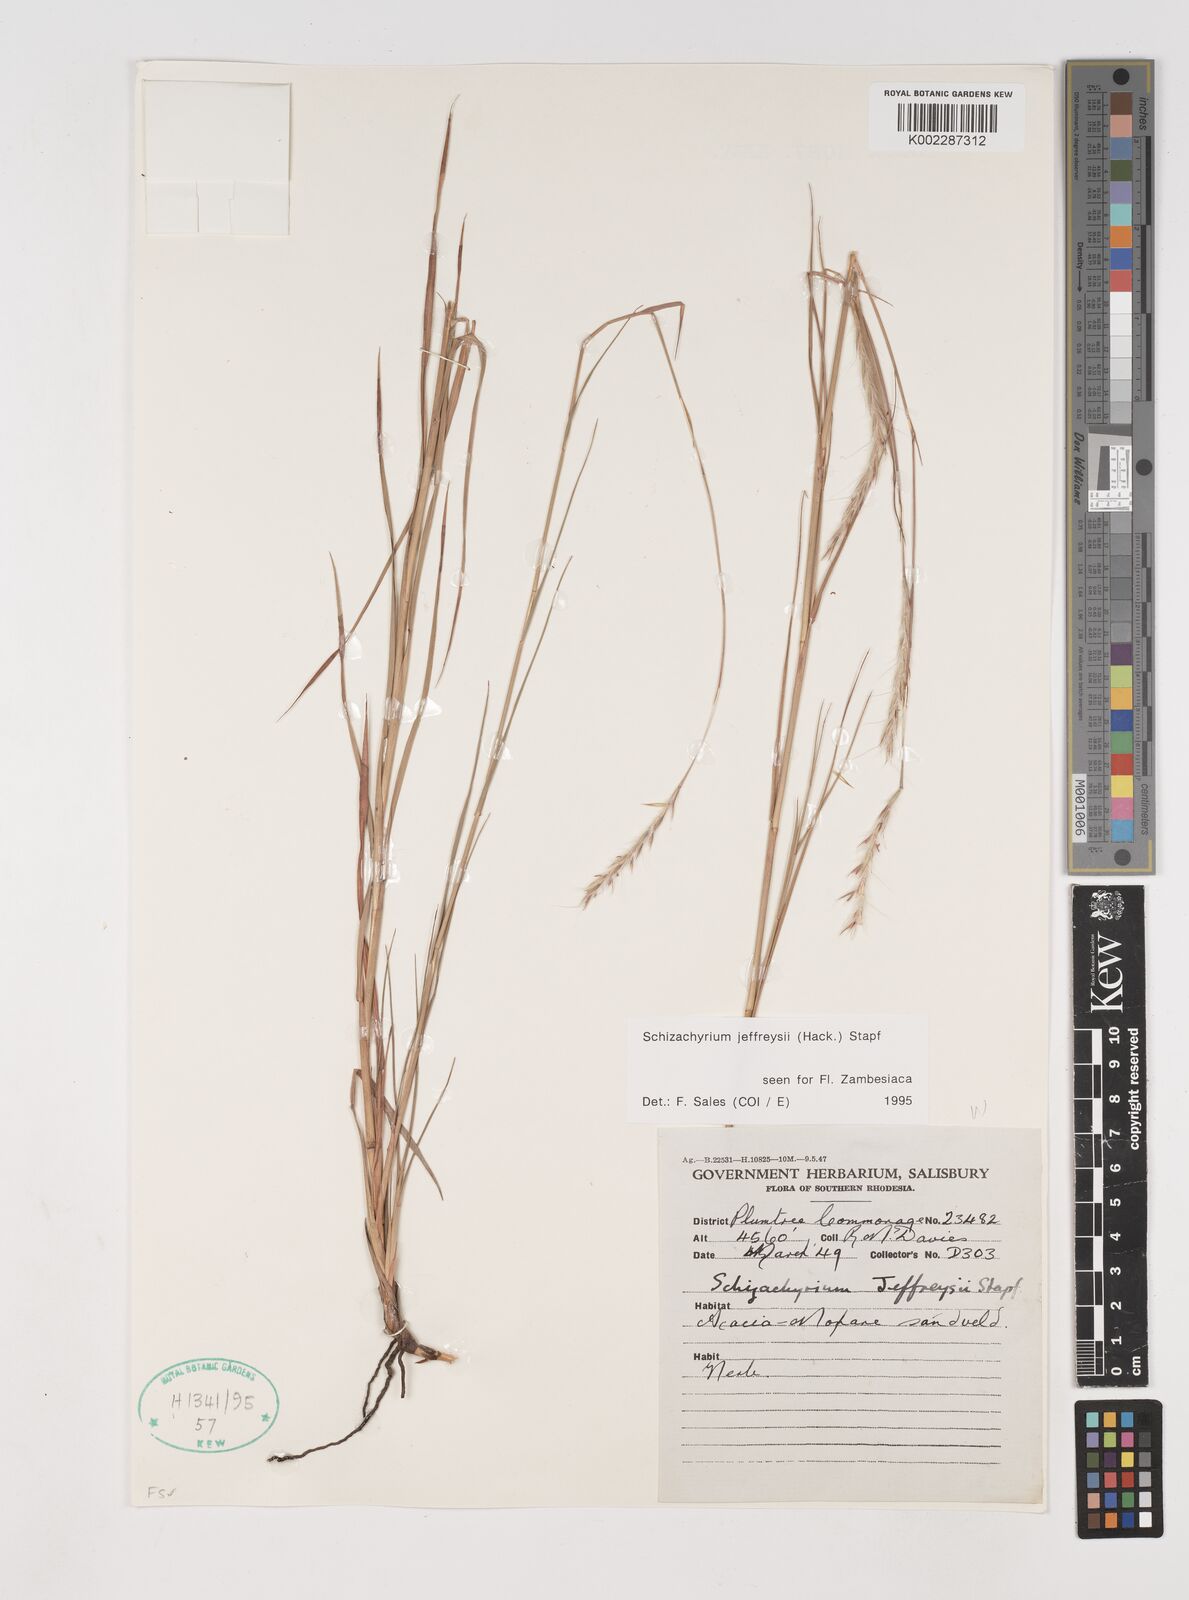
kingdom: Plantae
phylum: Tracheophyta
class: Liliopsida
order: Poales
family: Poaceae
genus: Schizachyrium
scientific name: Schizachyrium jeffreysii
